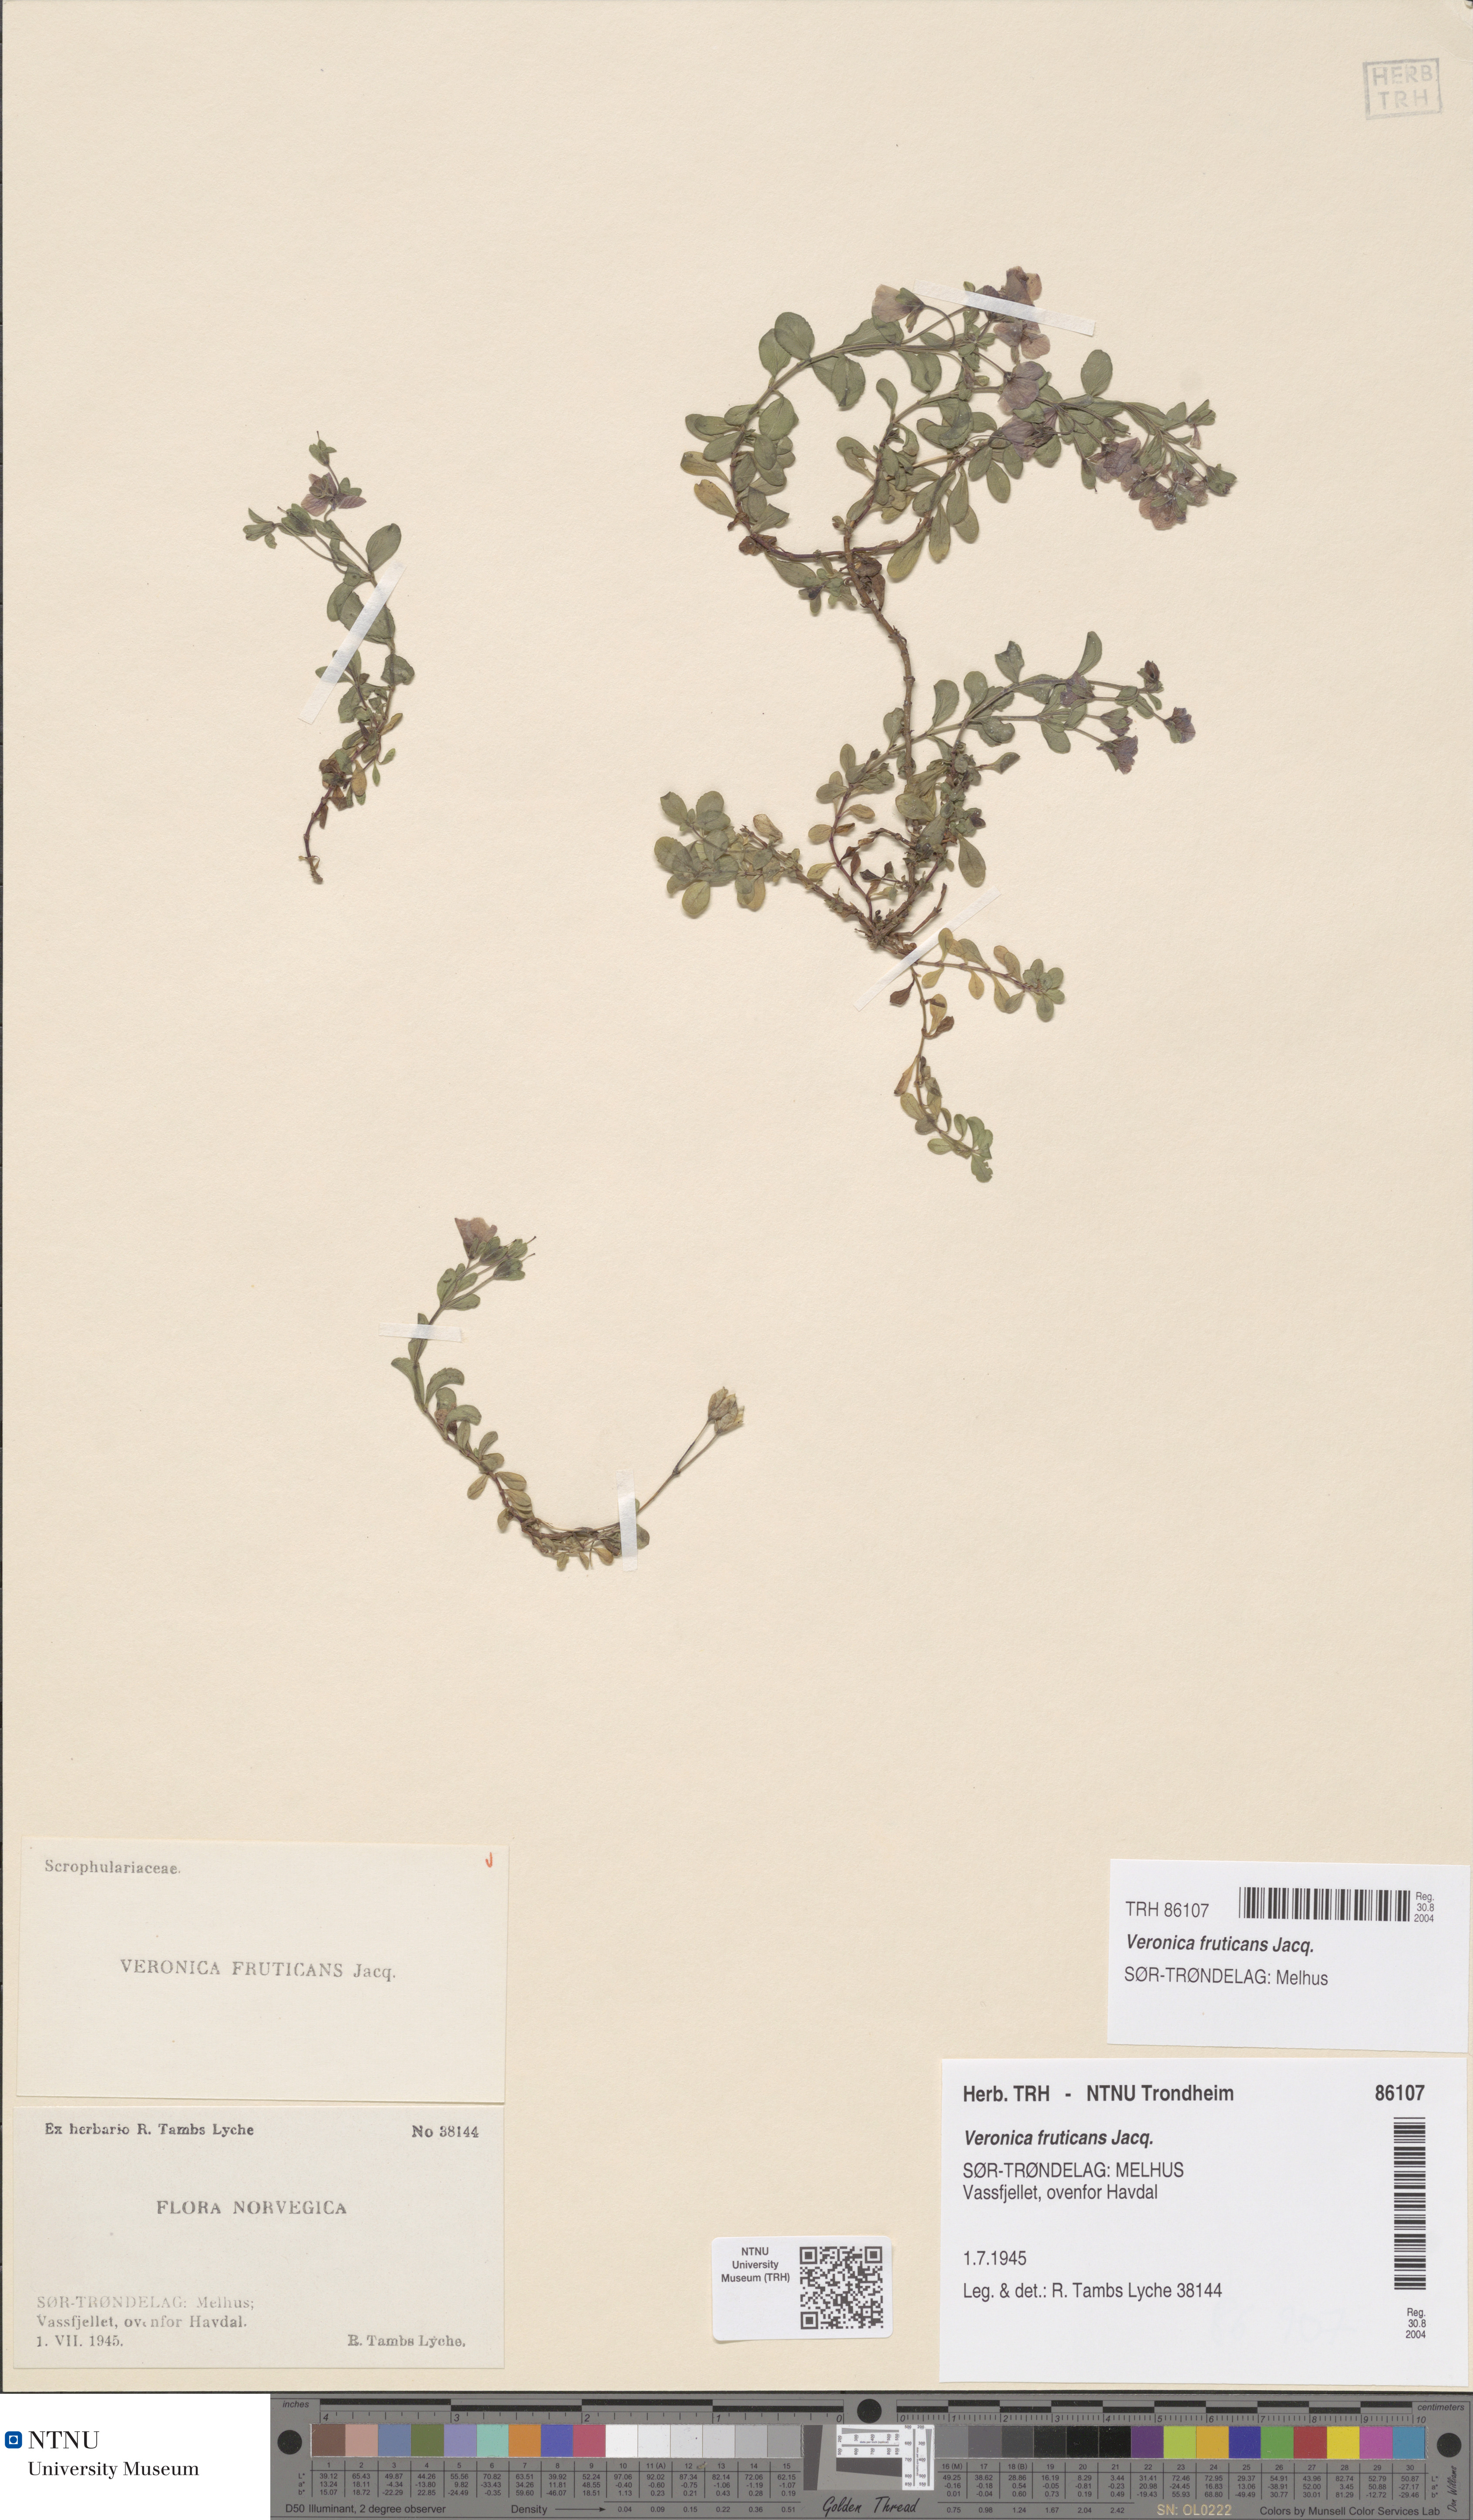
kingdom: Plantae
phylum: Tracheophyta
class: Magnoliopsida
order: Lamiales
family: Plantaginaceae
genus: Veronica
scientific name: Veronica fruticans
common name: Rock speedwell
